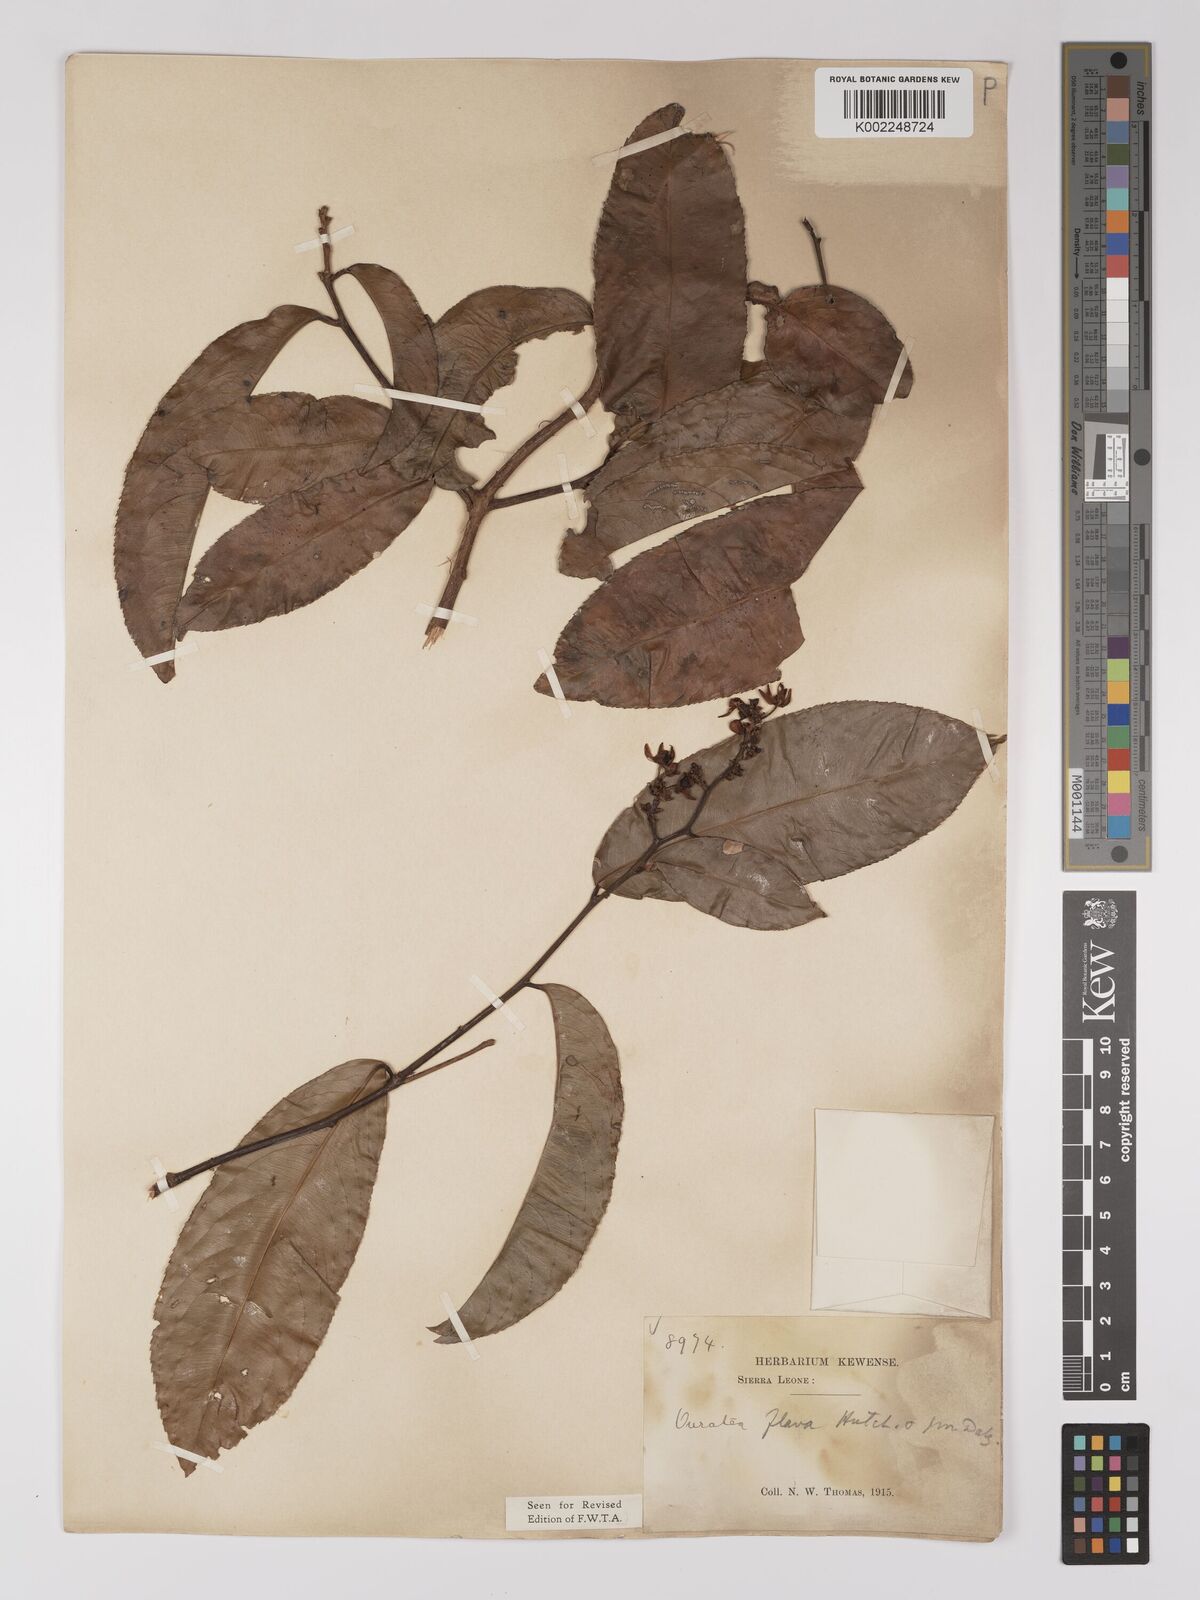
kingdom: Plantae
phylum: Tracheophyta
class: Magnoliopsida
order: Malpighiales
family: Ochnaceae
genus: Campylospermum
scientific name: Campylospermum flavum
